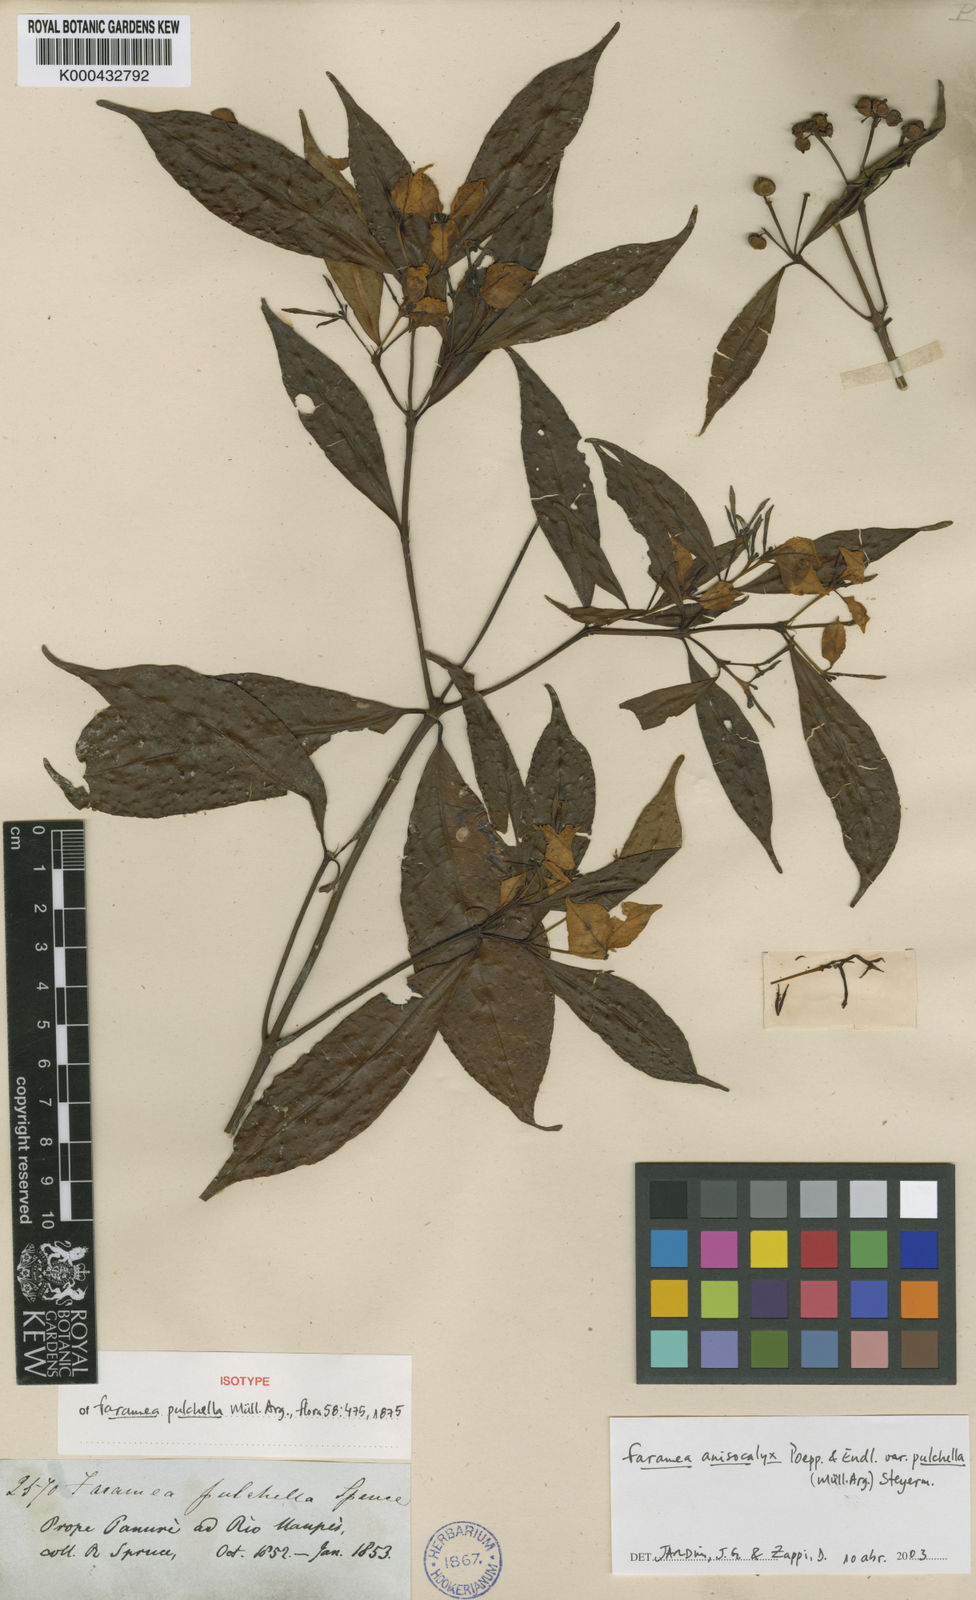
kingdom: Plantae
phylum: Tracheophyta
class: Magnoliopsida
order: Gentianales
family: Rubiaceae
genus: Faramea
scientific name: Faramea
